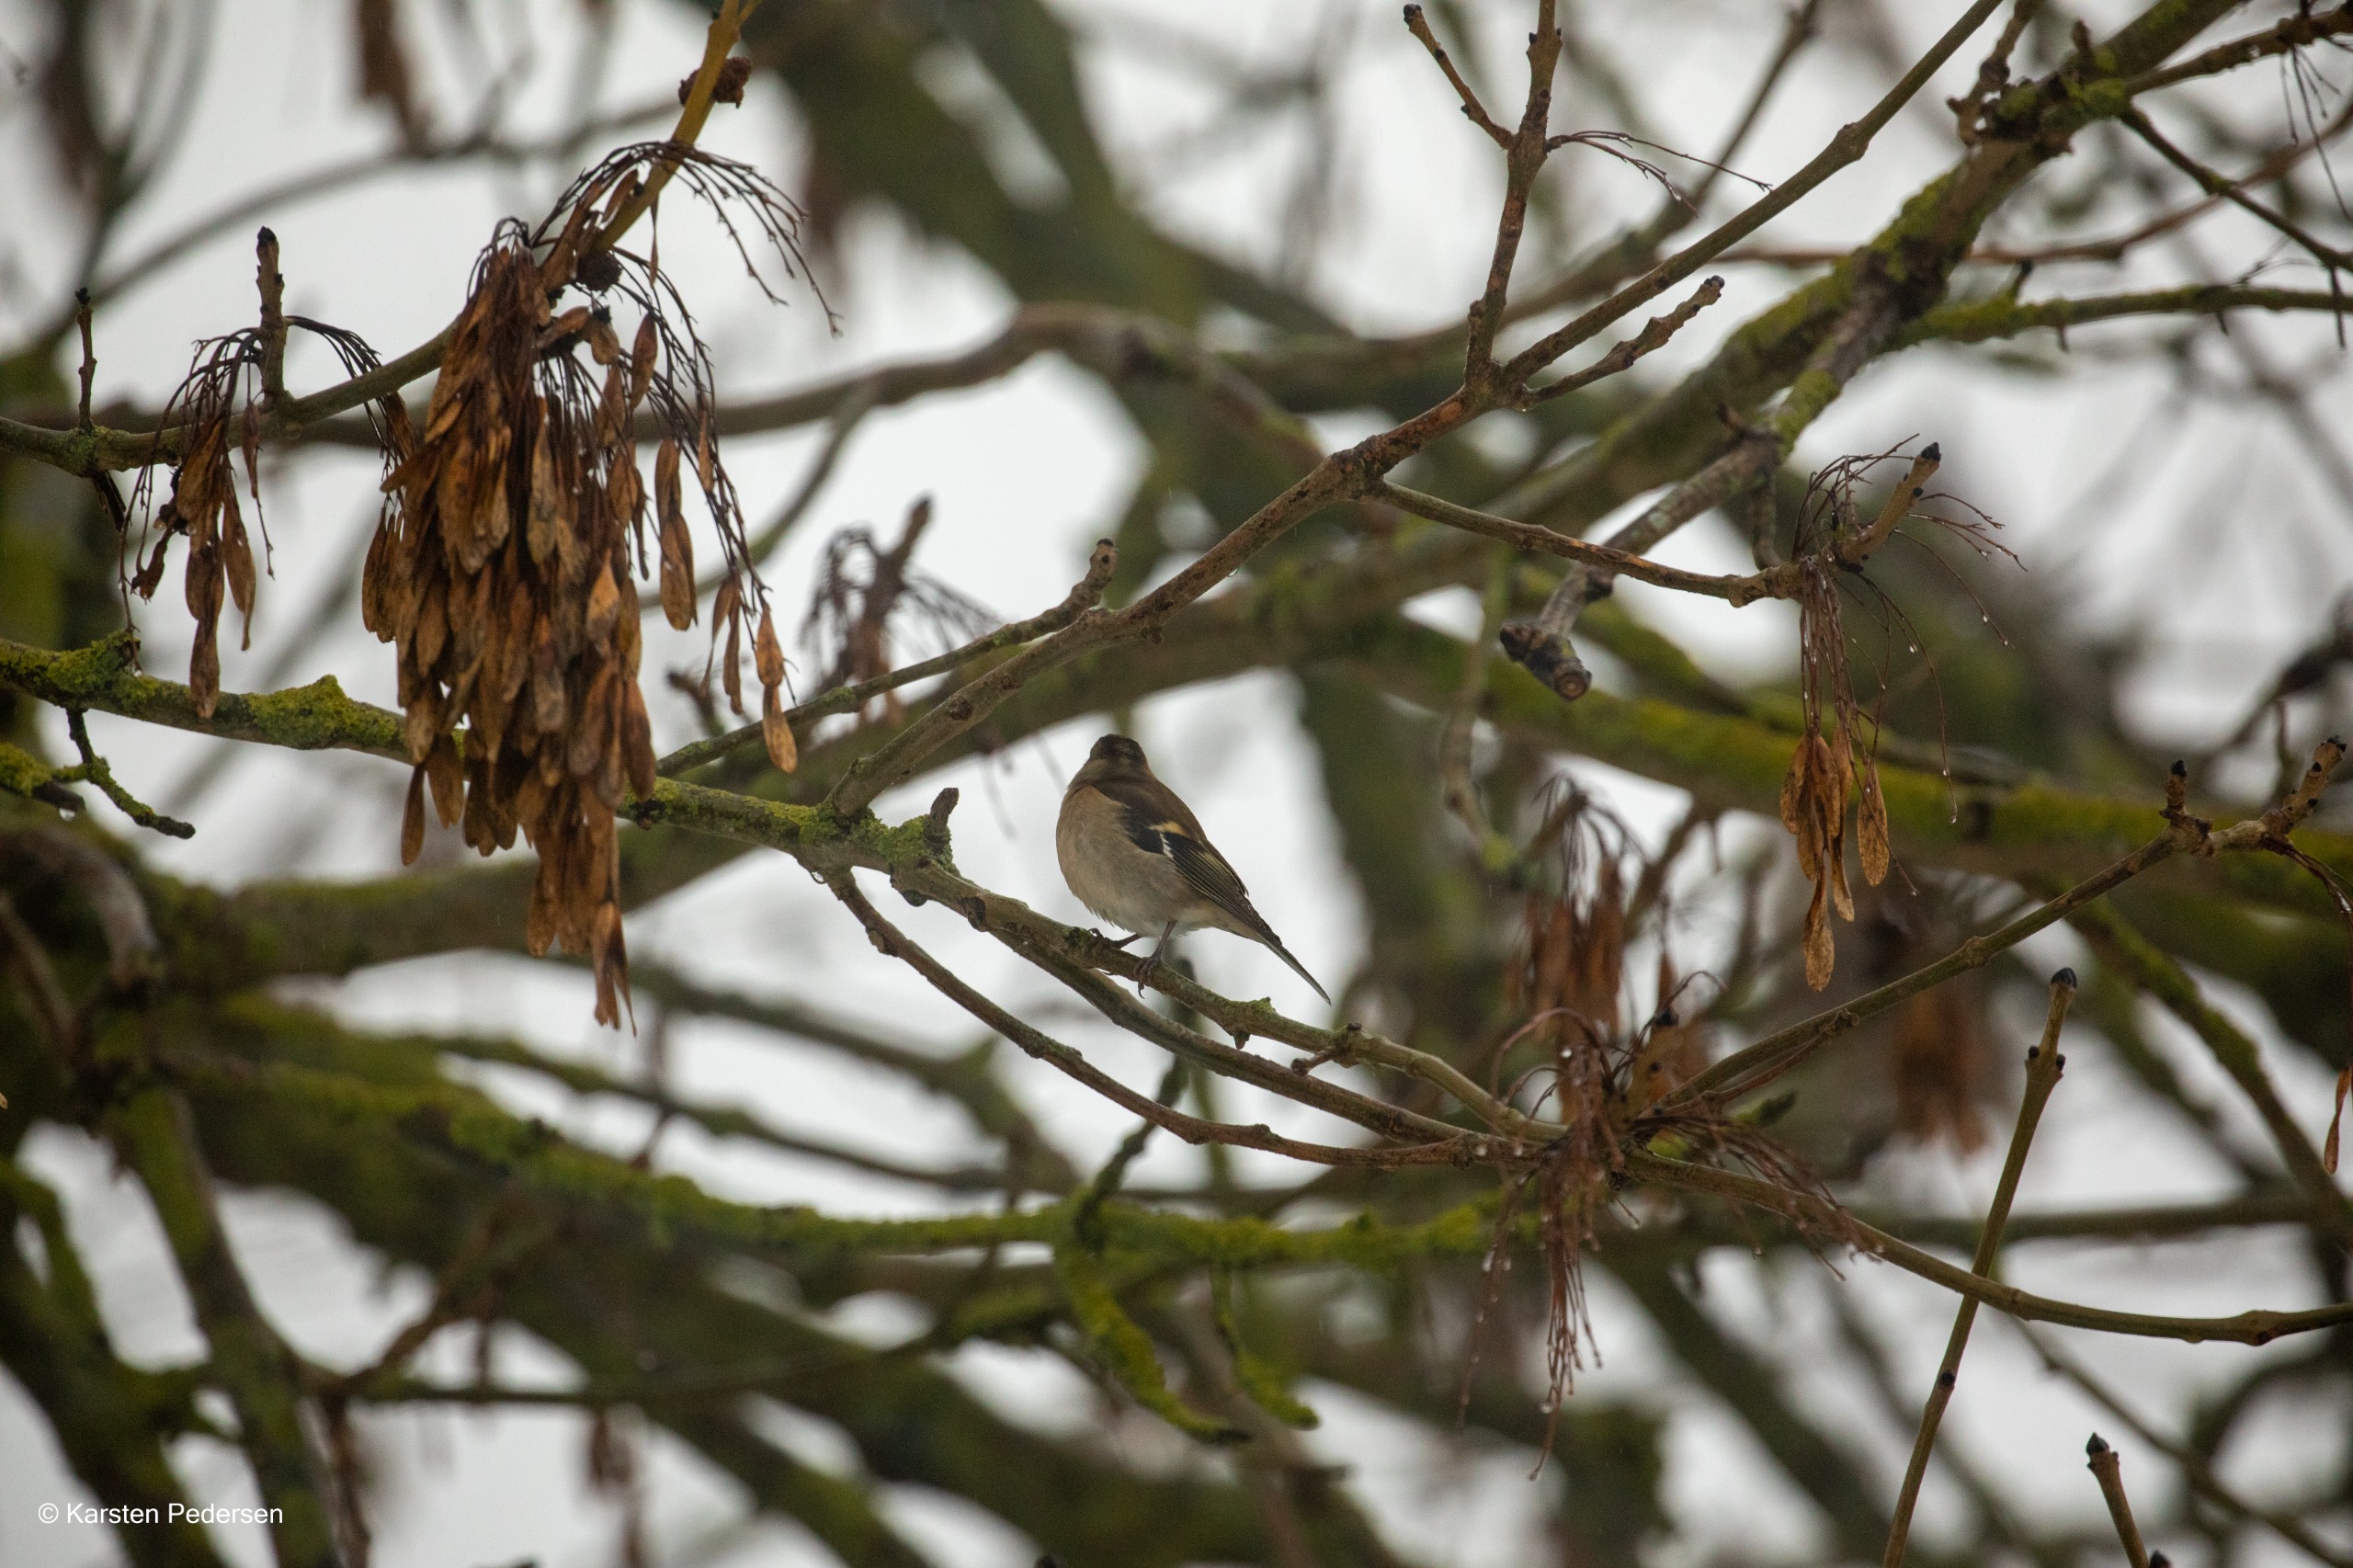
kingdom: Animalia
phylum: Chordata
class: Aves
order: Passeriformes
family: Fringillidae
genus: Fringilla
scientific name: Fringilla coelebs
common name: Bogfinke
